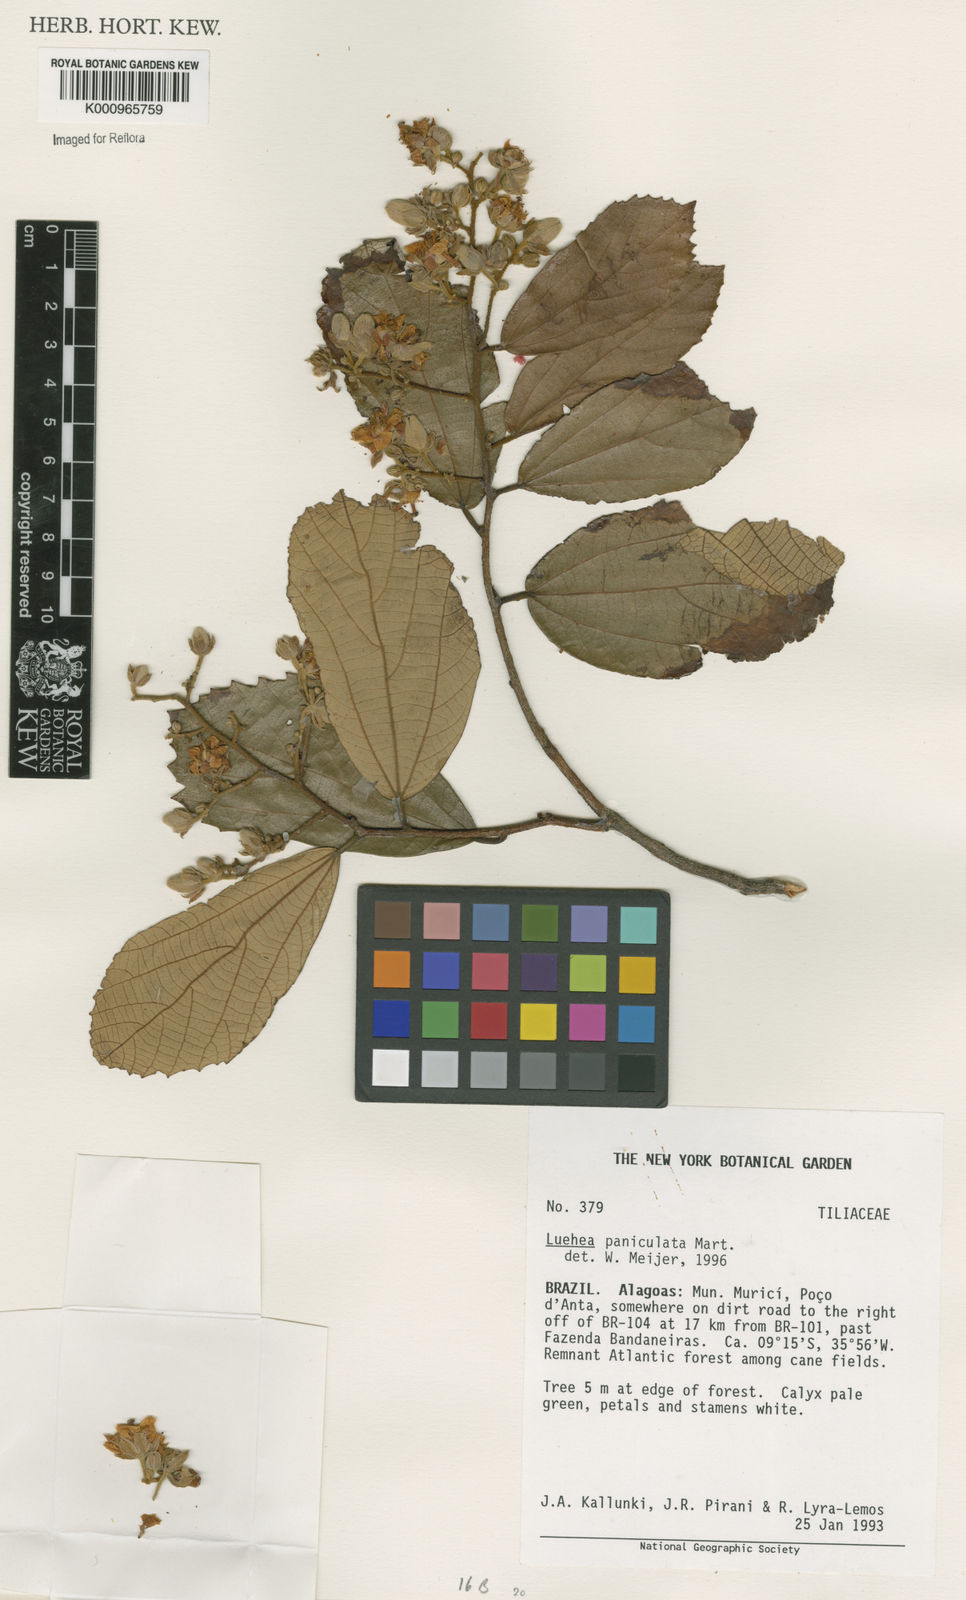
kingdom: Plantae
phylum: Tracheophyta
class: Magnoliopsida
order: Malvales
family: Malvaceae
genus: Luehea
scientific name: Luehea paniculata
